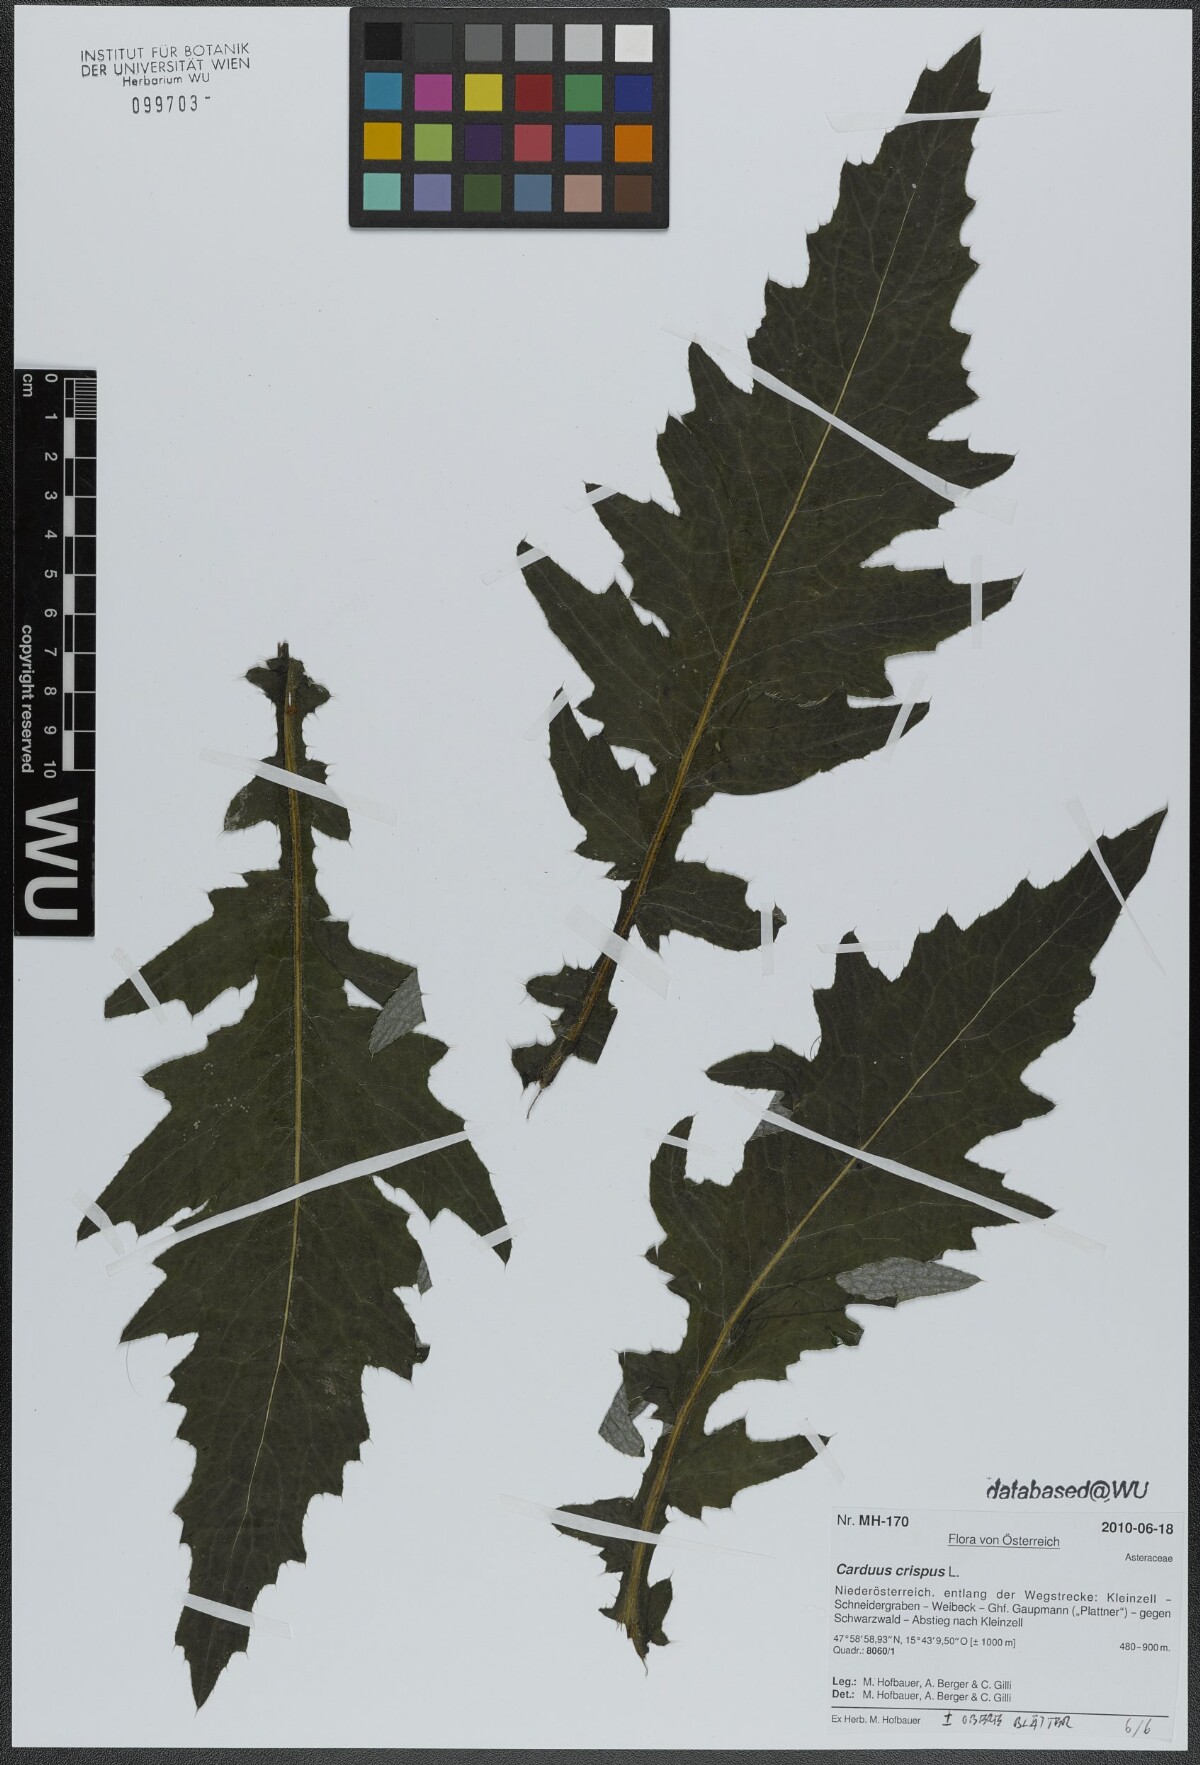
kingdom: Plantae
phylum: Tracheophyta
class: Magnoliopsida
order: Asterales
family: Asteraceae
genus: Carduus
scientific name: Carduus crispus
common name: Welted thistle
